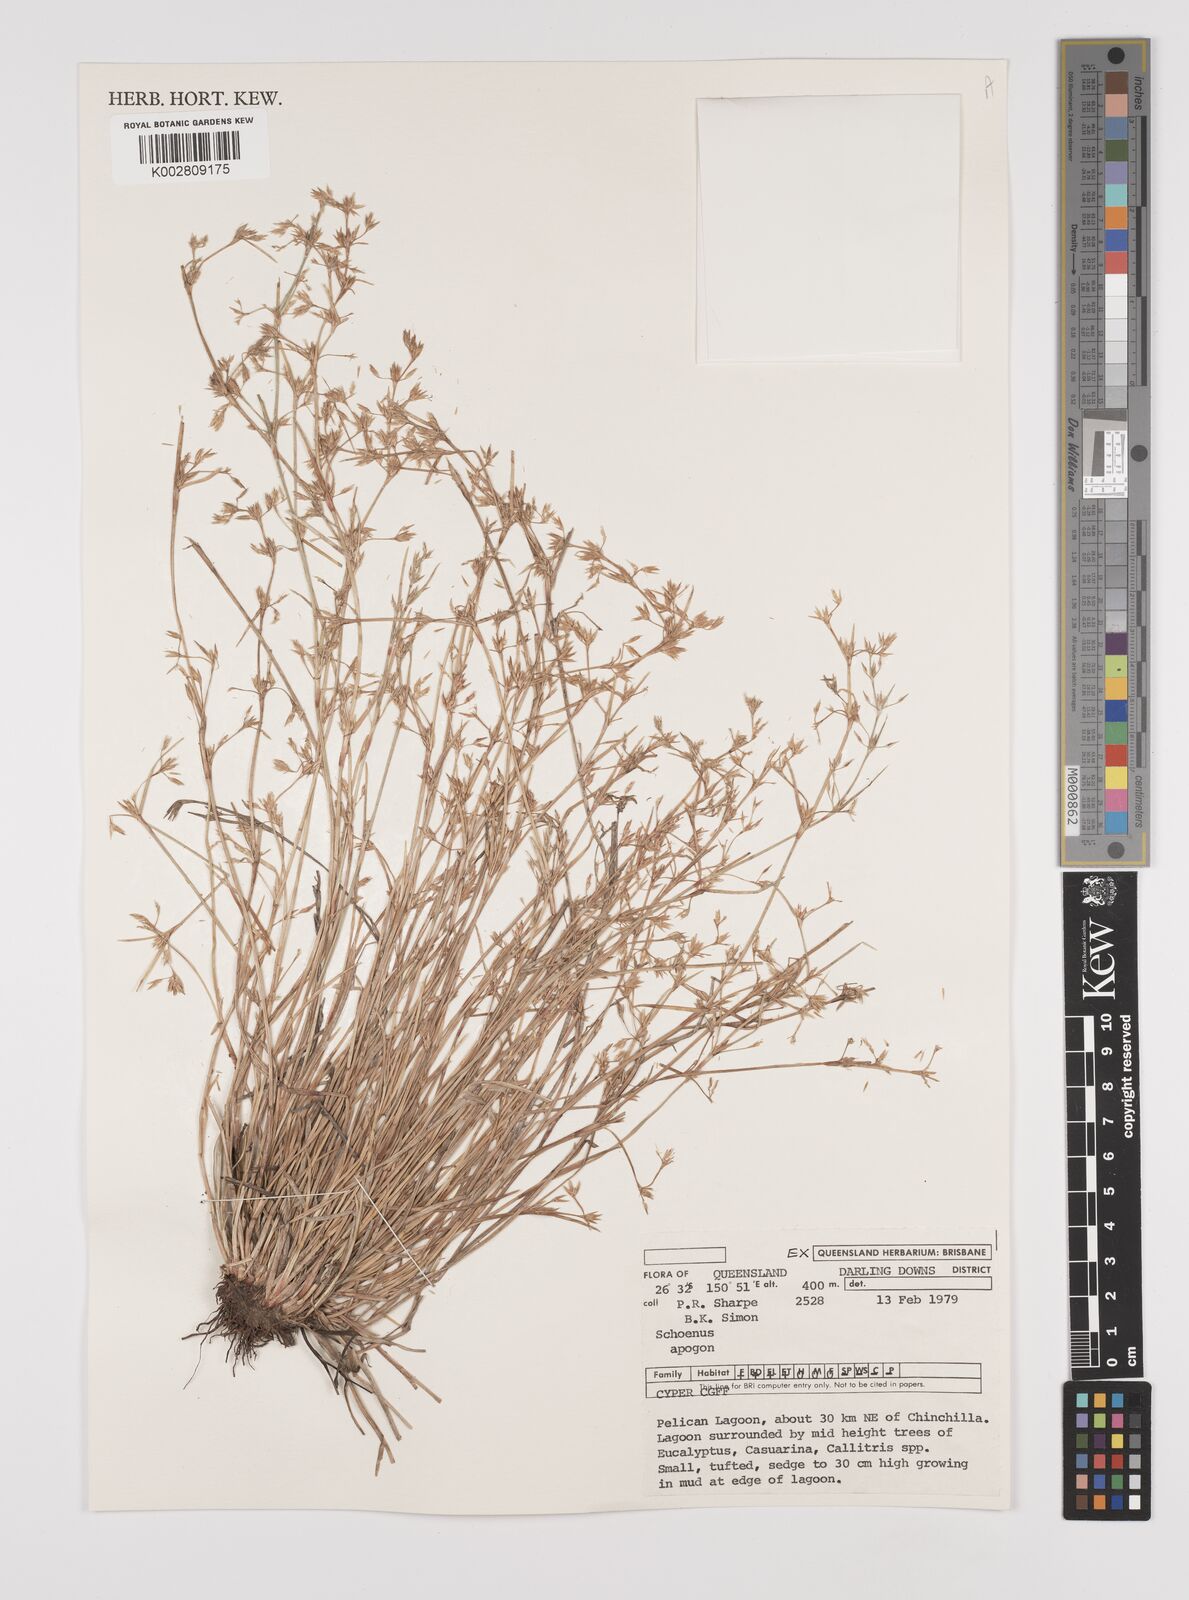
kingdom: Plantae
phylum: Tracheophyta
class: Liliopsida
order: Poales
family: Cyperaceae
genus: Schoenus
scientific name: Schoenus apogon
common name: Smooth bogrush
